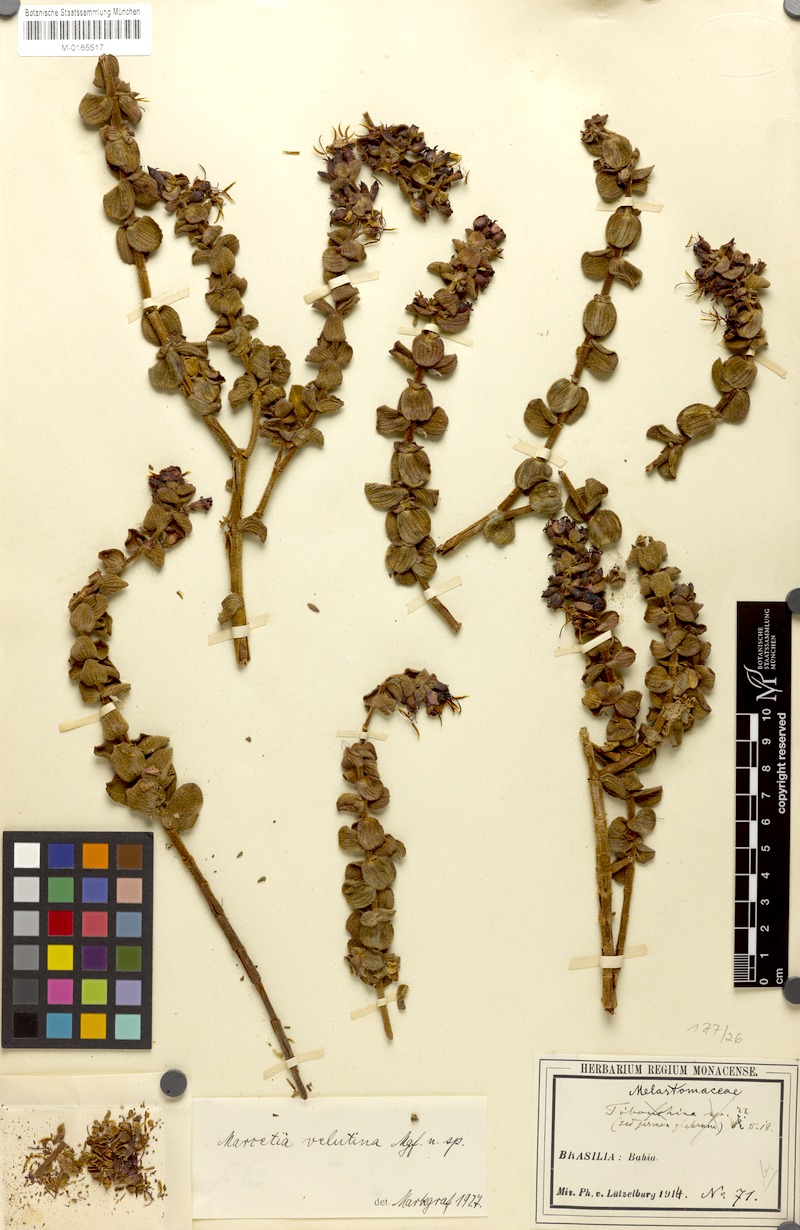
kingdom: Plantae
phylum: Tracheophyta
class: Magnoliopsida
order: Myrtales
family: Melastomataceae
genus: Marcetia
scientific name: Marcetia velutina
